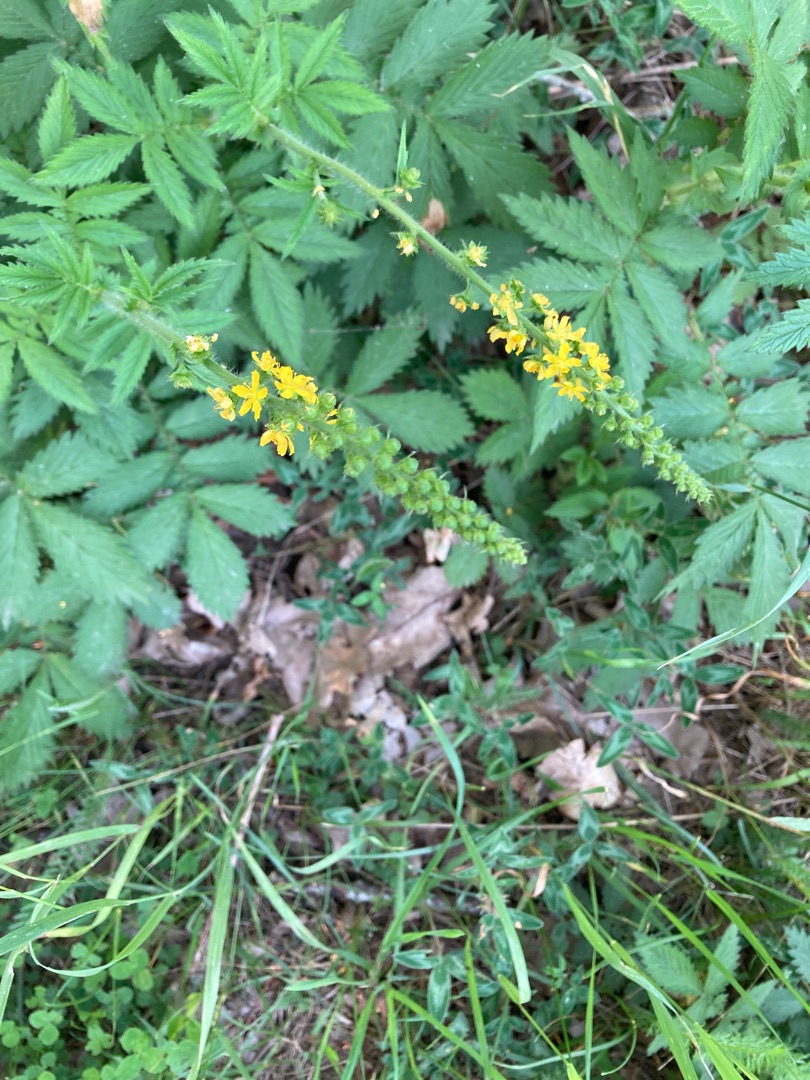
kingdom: Plantae
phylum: Tracheophyta
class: Magnoliopsida
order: Rosales
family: Rosaceae
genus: Agrimonia
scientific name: Agrimonia procera
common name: Vellugtende agermåne
